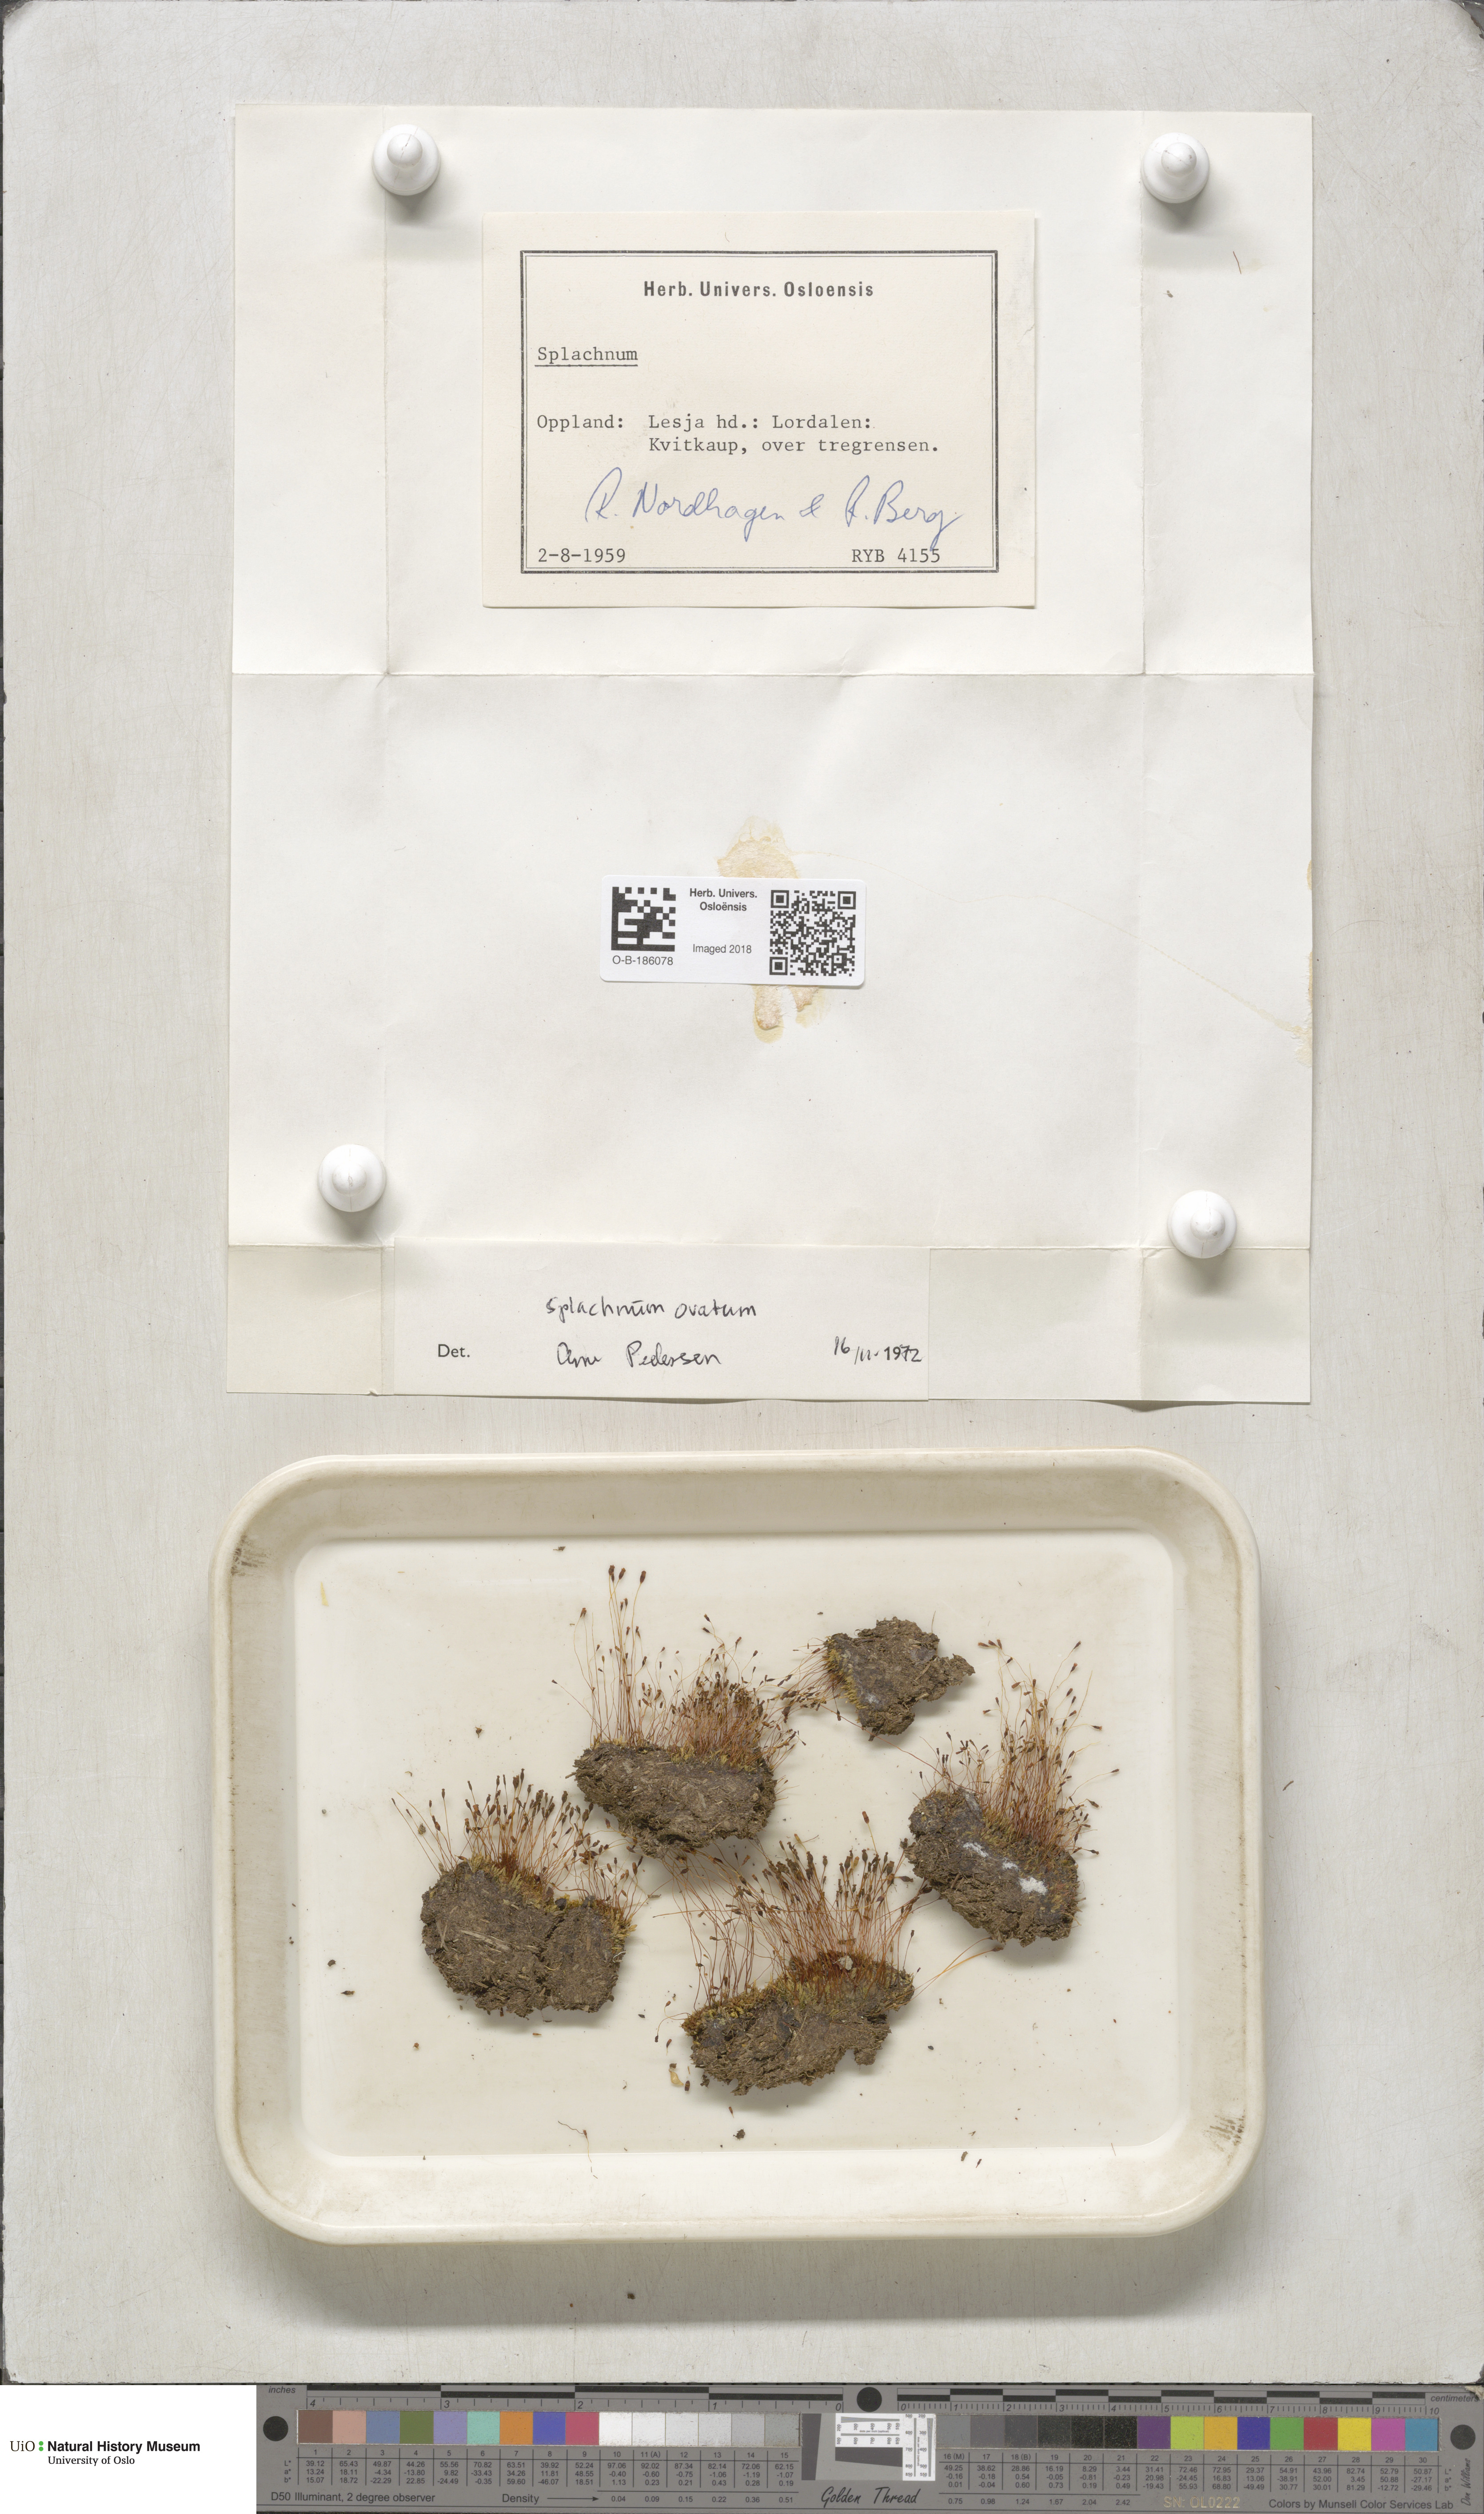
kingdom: Plantae
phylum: Bryophyta
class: Bryopsida
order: Splachnales
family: Splachnaceae
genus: Splachnum
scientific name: Splachnum sphaericum
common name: Round-fruited dung moss
